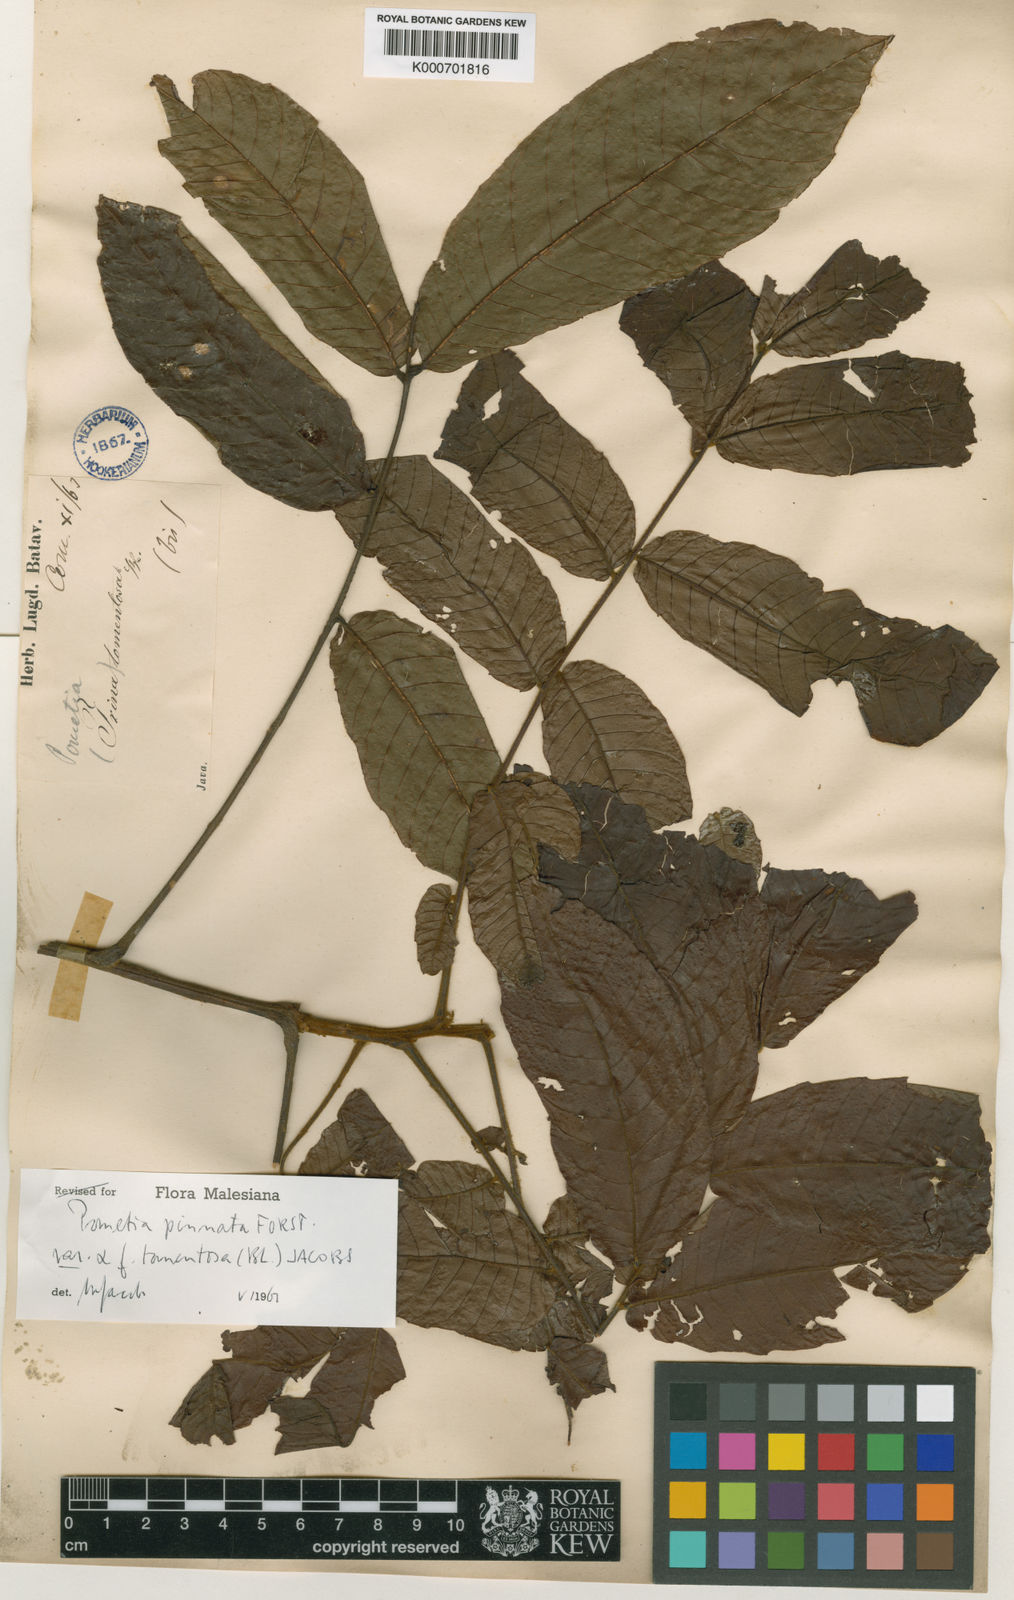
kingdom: Plantae
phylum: Tracheophyta
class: Magnoliopsida
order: Sapindales
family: Sapindaceae
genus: Pometia
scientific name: Pometia pinnata
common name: Oceanic lychee
